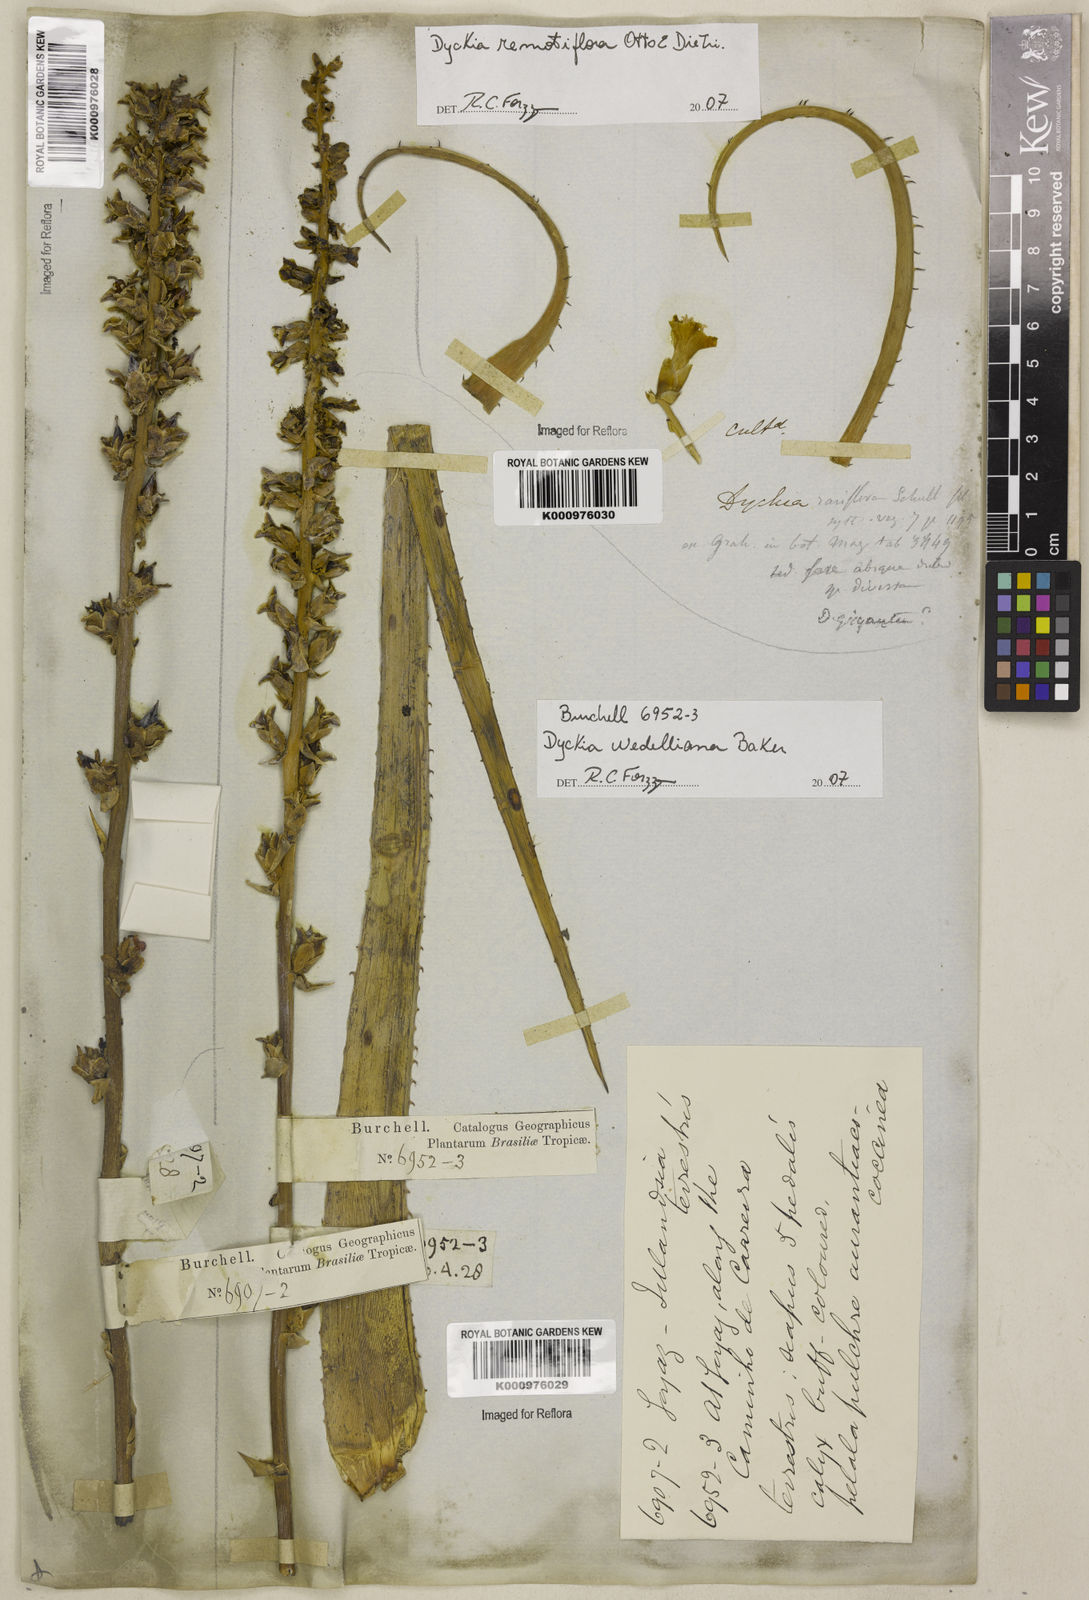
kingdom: Plantae
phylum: Tracheophyta
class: Liliopsida
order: Poales
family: Bromeliaceae
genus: Dyckia
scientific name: Dyckia weddelliana
